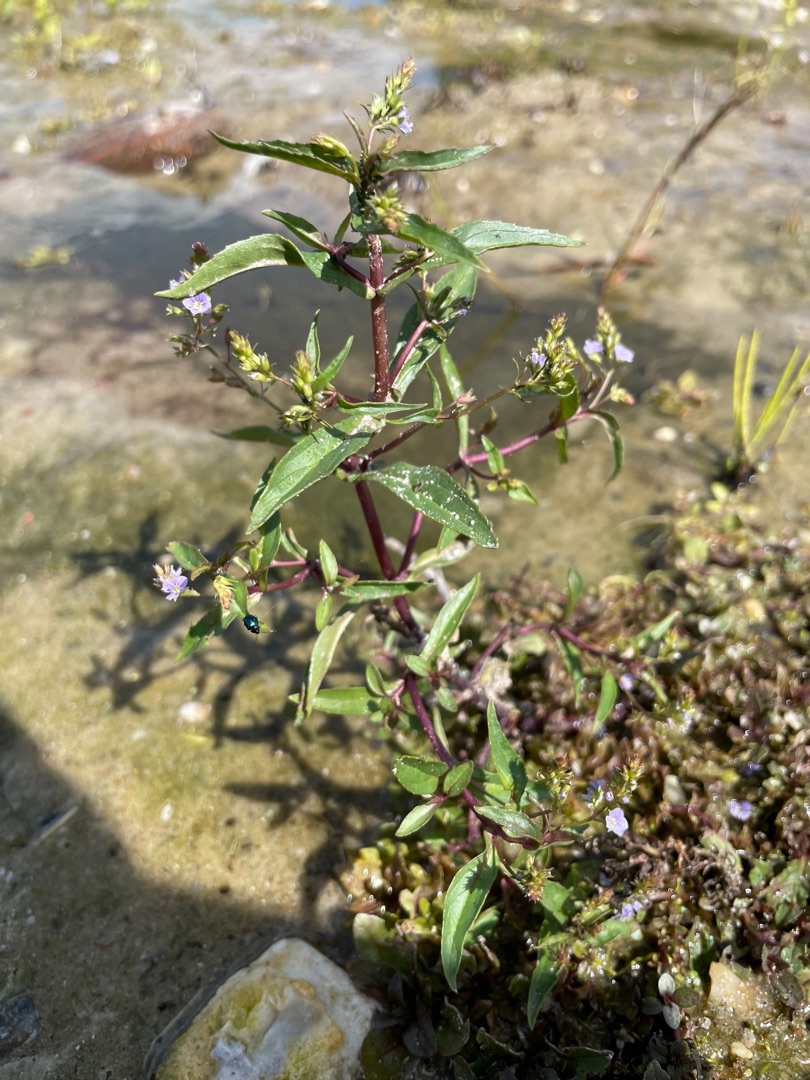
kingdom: Plantae
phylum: Tracheophyta
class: Magnoliopsida
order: Lamiales
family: Plantaginaceae
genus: Veronica
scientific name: Veronica anagallis-aquatica
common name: Lancetbladet ærenpris
